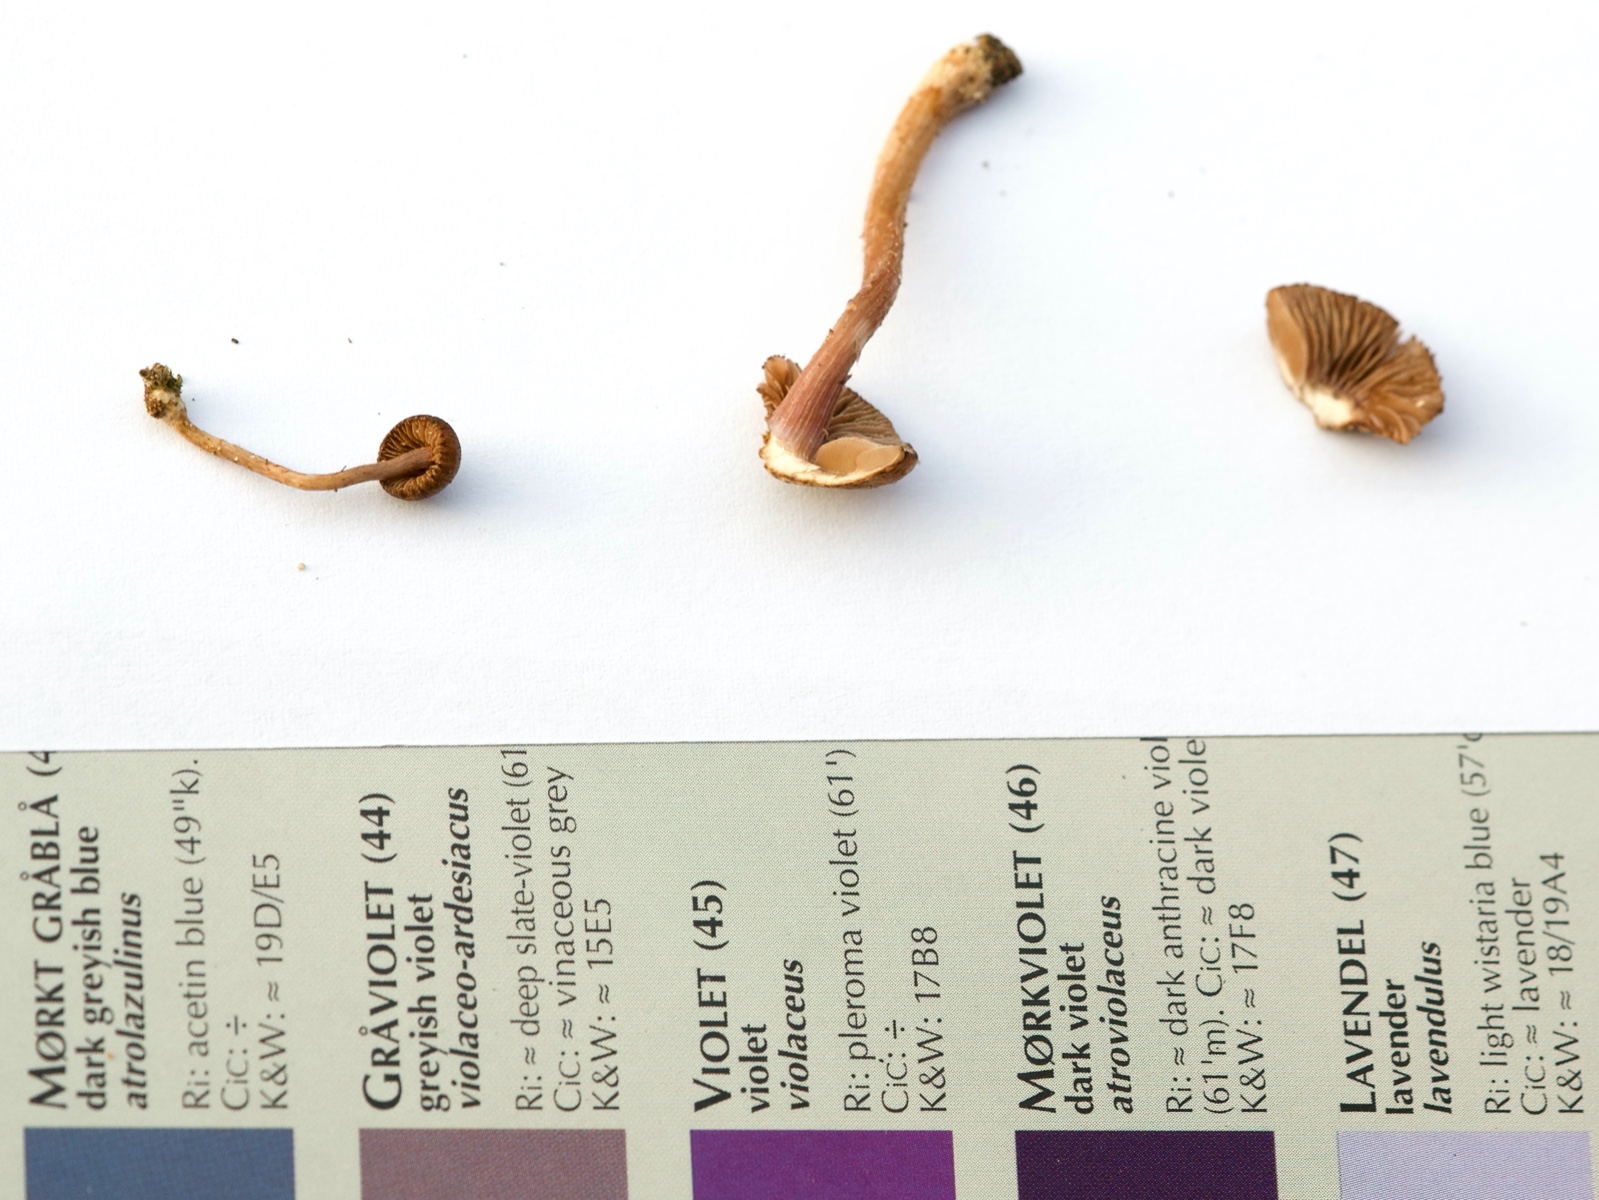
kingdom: Fungi
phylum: Basidiomycota
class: Agaricomycetes
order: Agaricales
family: Inocybaceae
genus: Inocybe
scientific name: Inocybe pusio
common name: violetfodet trævlhat
